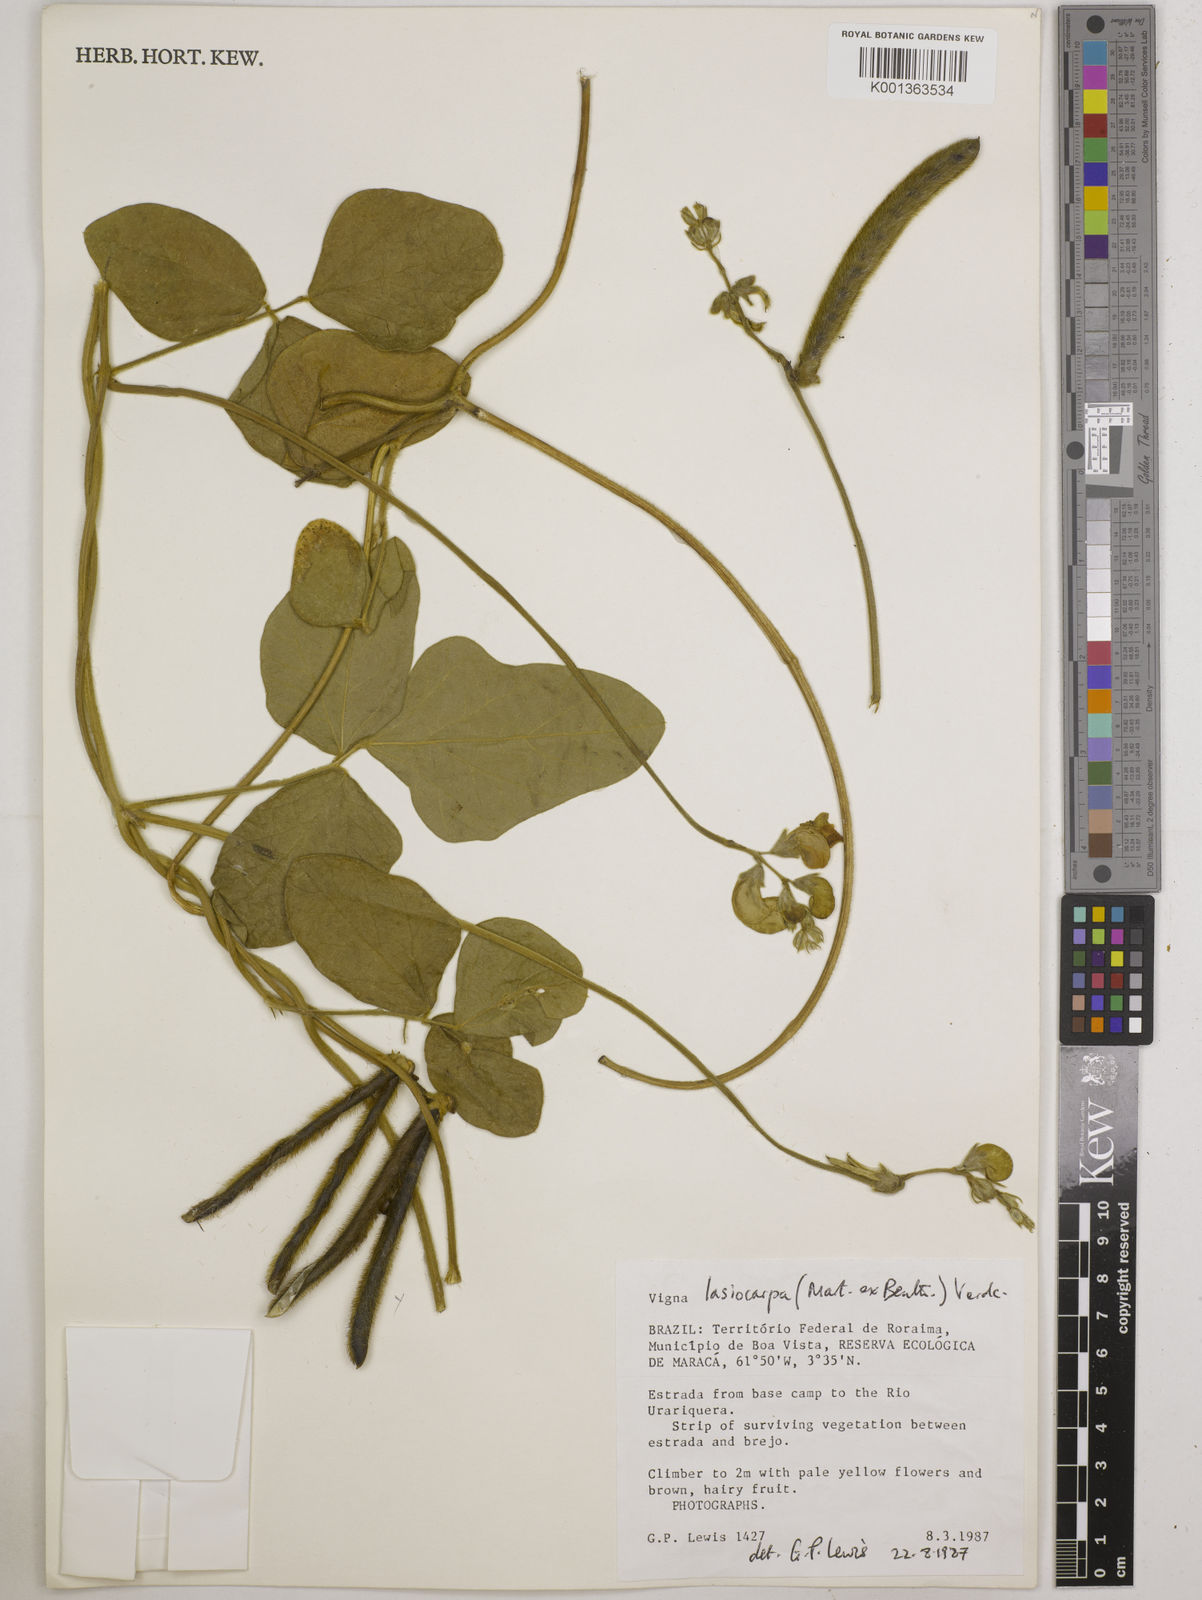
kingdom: Plantae
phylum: Tracheophyta
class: Magnoliopsida
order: Fabales
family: Fabaceae
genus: Vigna
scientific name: Vigna lasiocarpa
